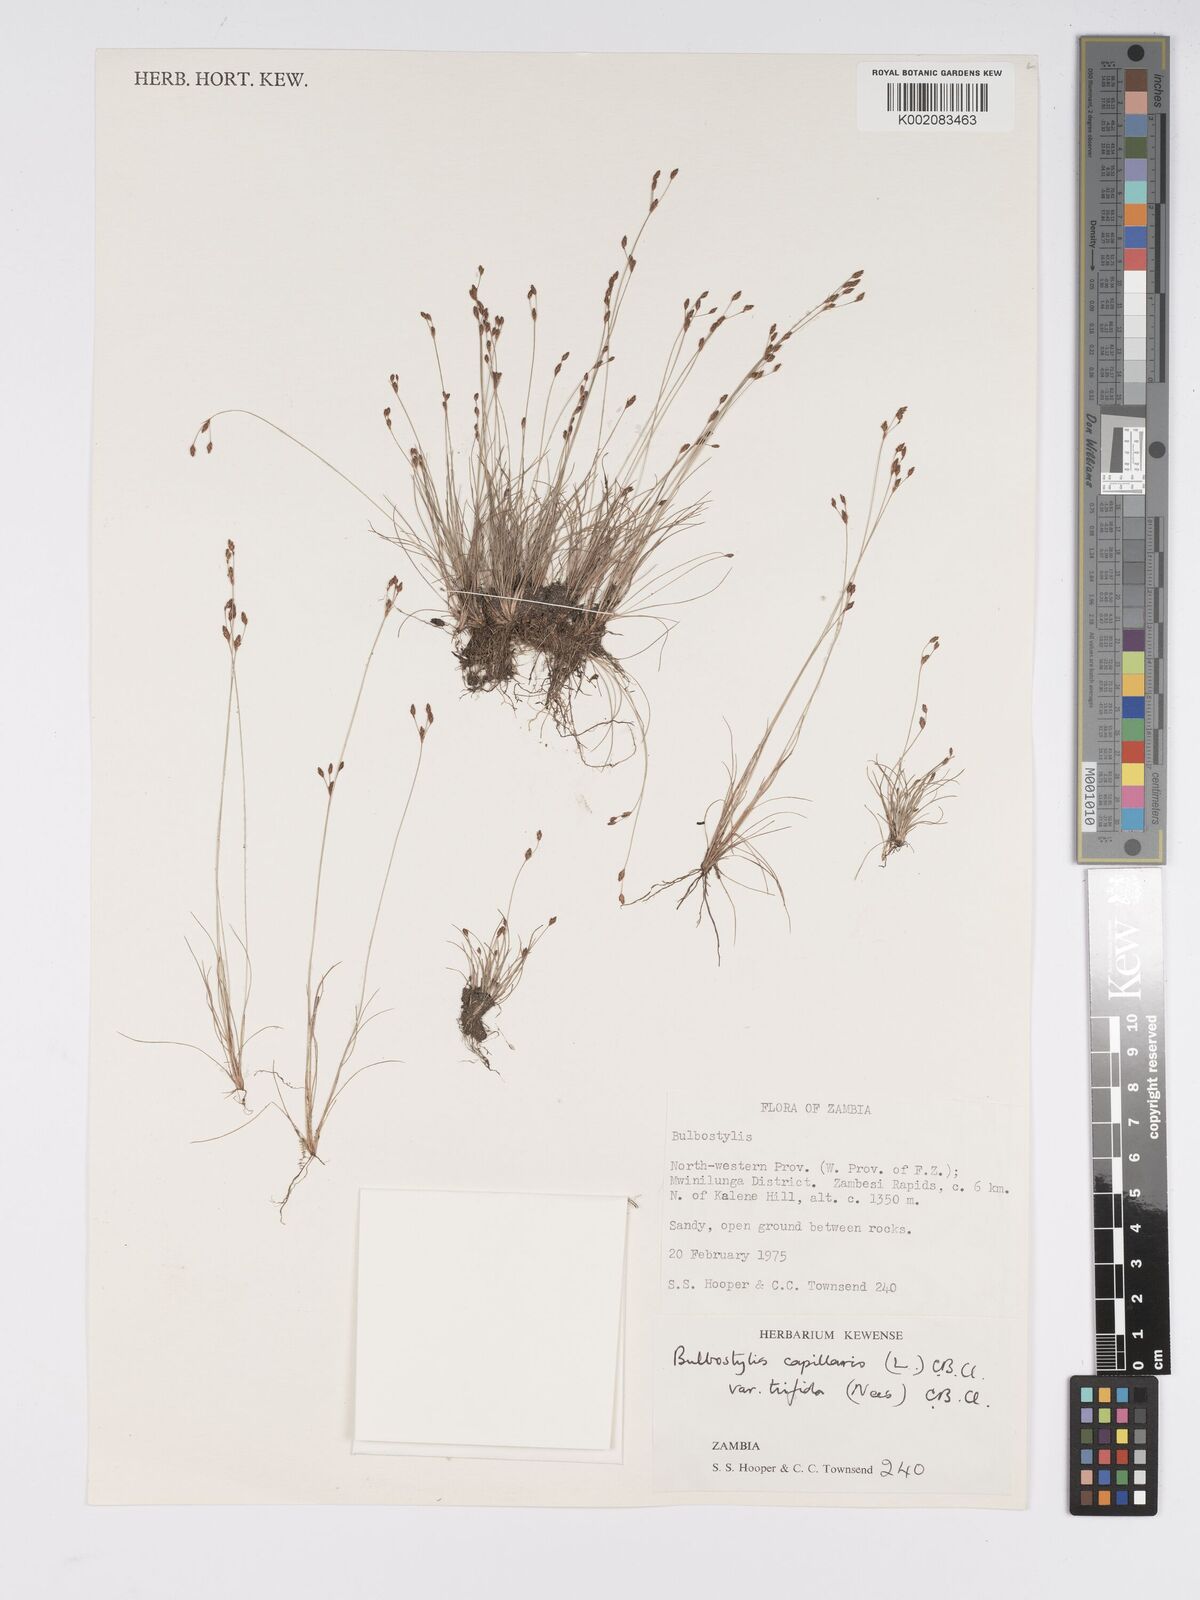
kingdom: Plantae
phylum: Tracheophyta
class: Liliopsida
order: Poales
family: Cyperaceae
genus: Bulbostylis
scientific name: Bulbostylis capillaris
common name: Densetuft hairsedge
